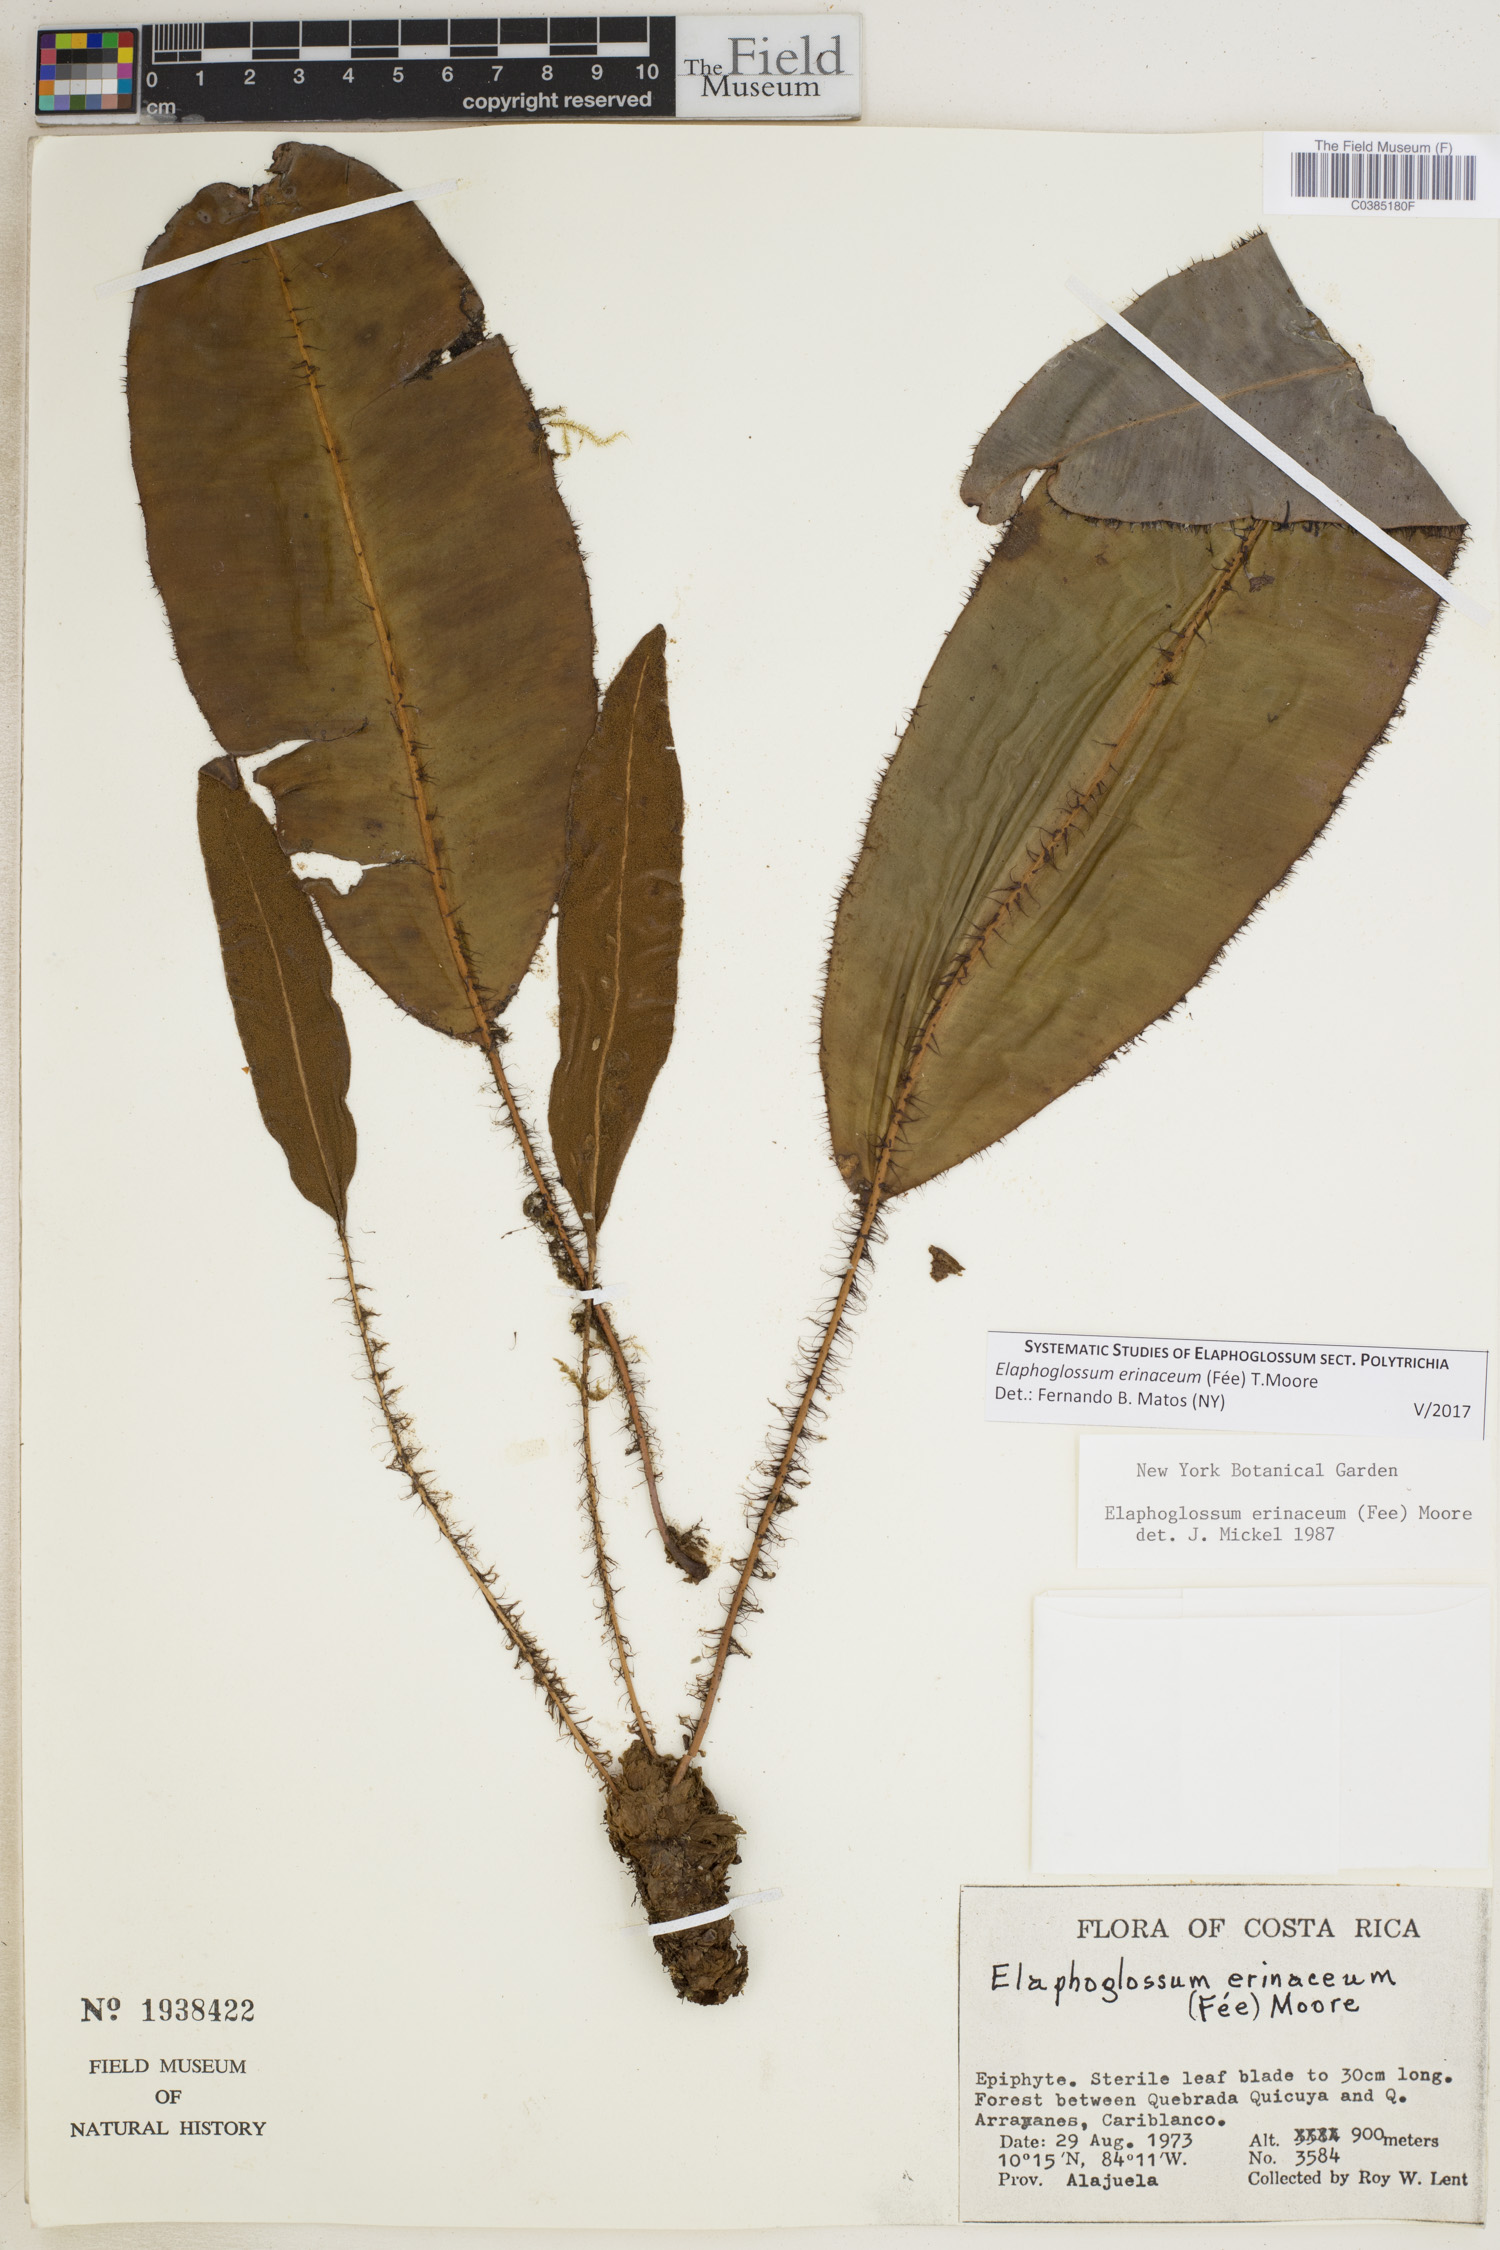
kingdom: Plantae
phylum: Tracheophyta
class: Polypodiopsida
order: Polypodiales
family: Dryopteridaceae
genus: Elaphoglossum
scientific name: Elaphoglossum erinaceum
